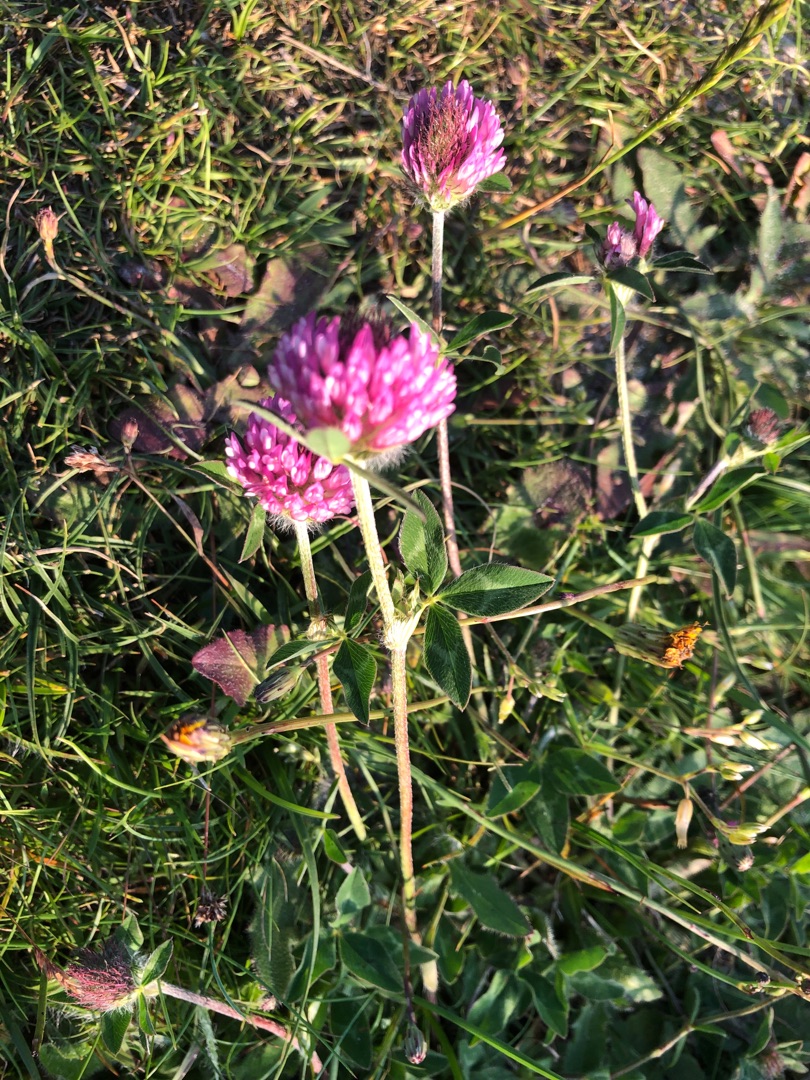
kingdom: Plantae
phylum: Tracheophyta
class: Magnoliopsida
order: Fabales
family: Fabaceae
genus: Trifolium
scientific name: Trifolium pratense
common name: Rød-kløver
